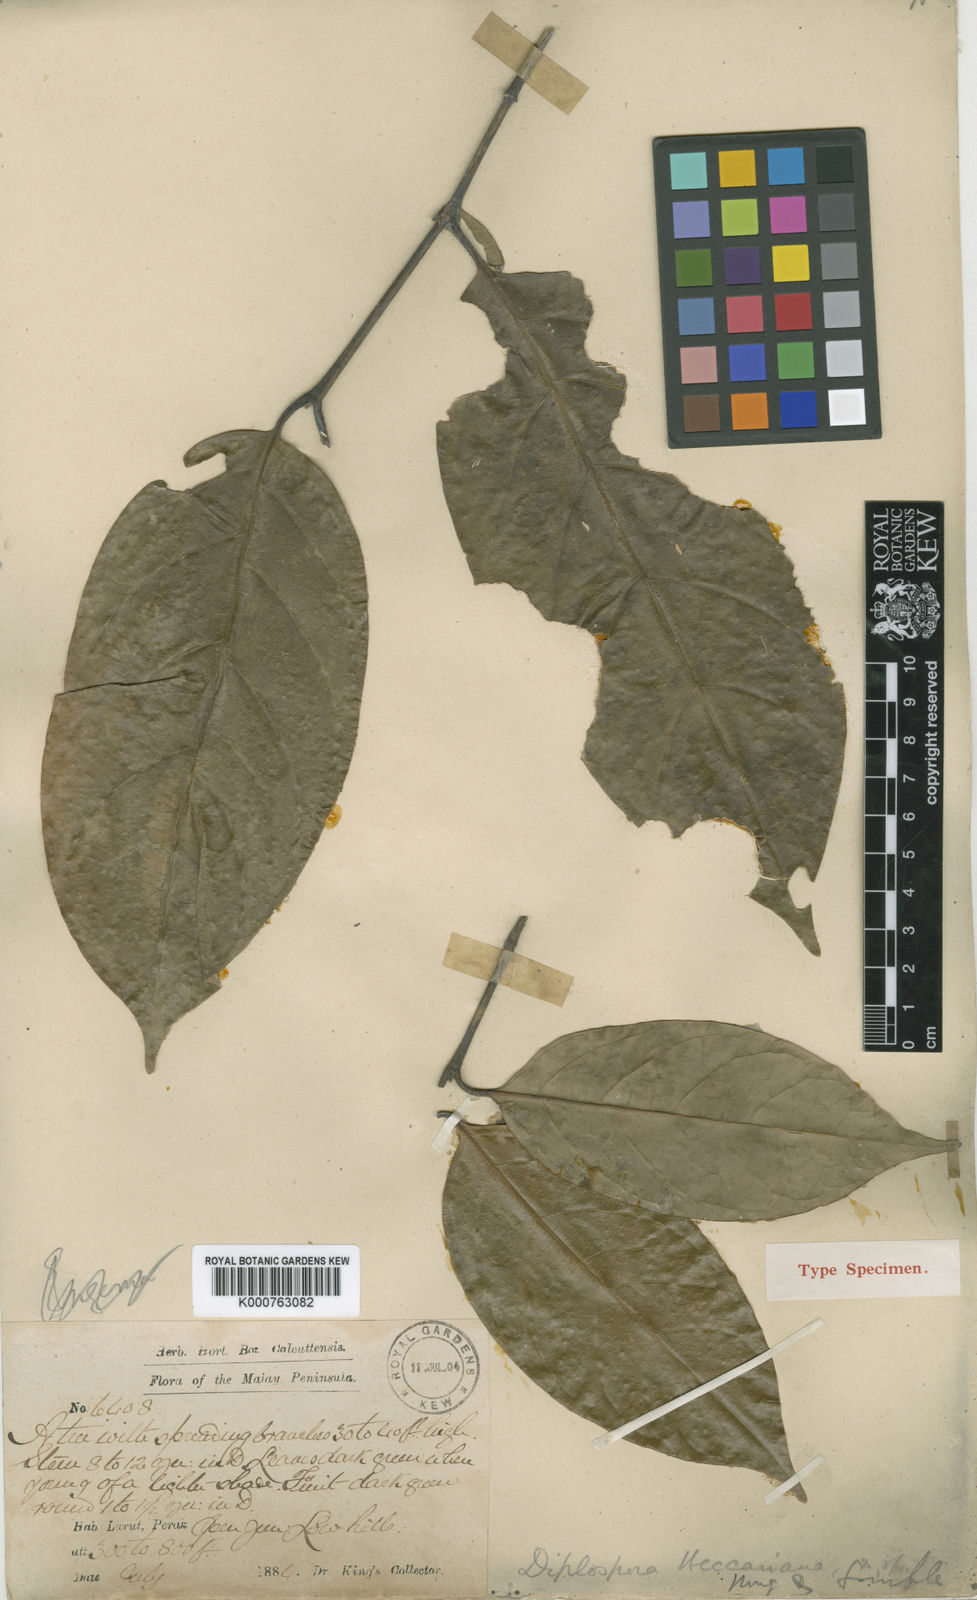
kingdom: Plantae
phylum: Tracheophyta
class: Magnoliopsida
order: Gentianales
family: Rubiaceae
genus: Discospermum
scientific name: Discospermum beccarianum
